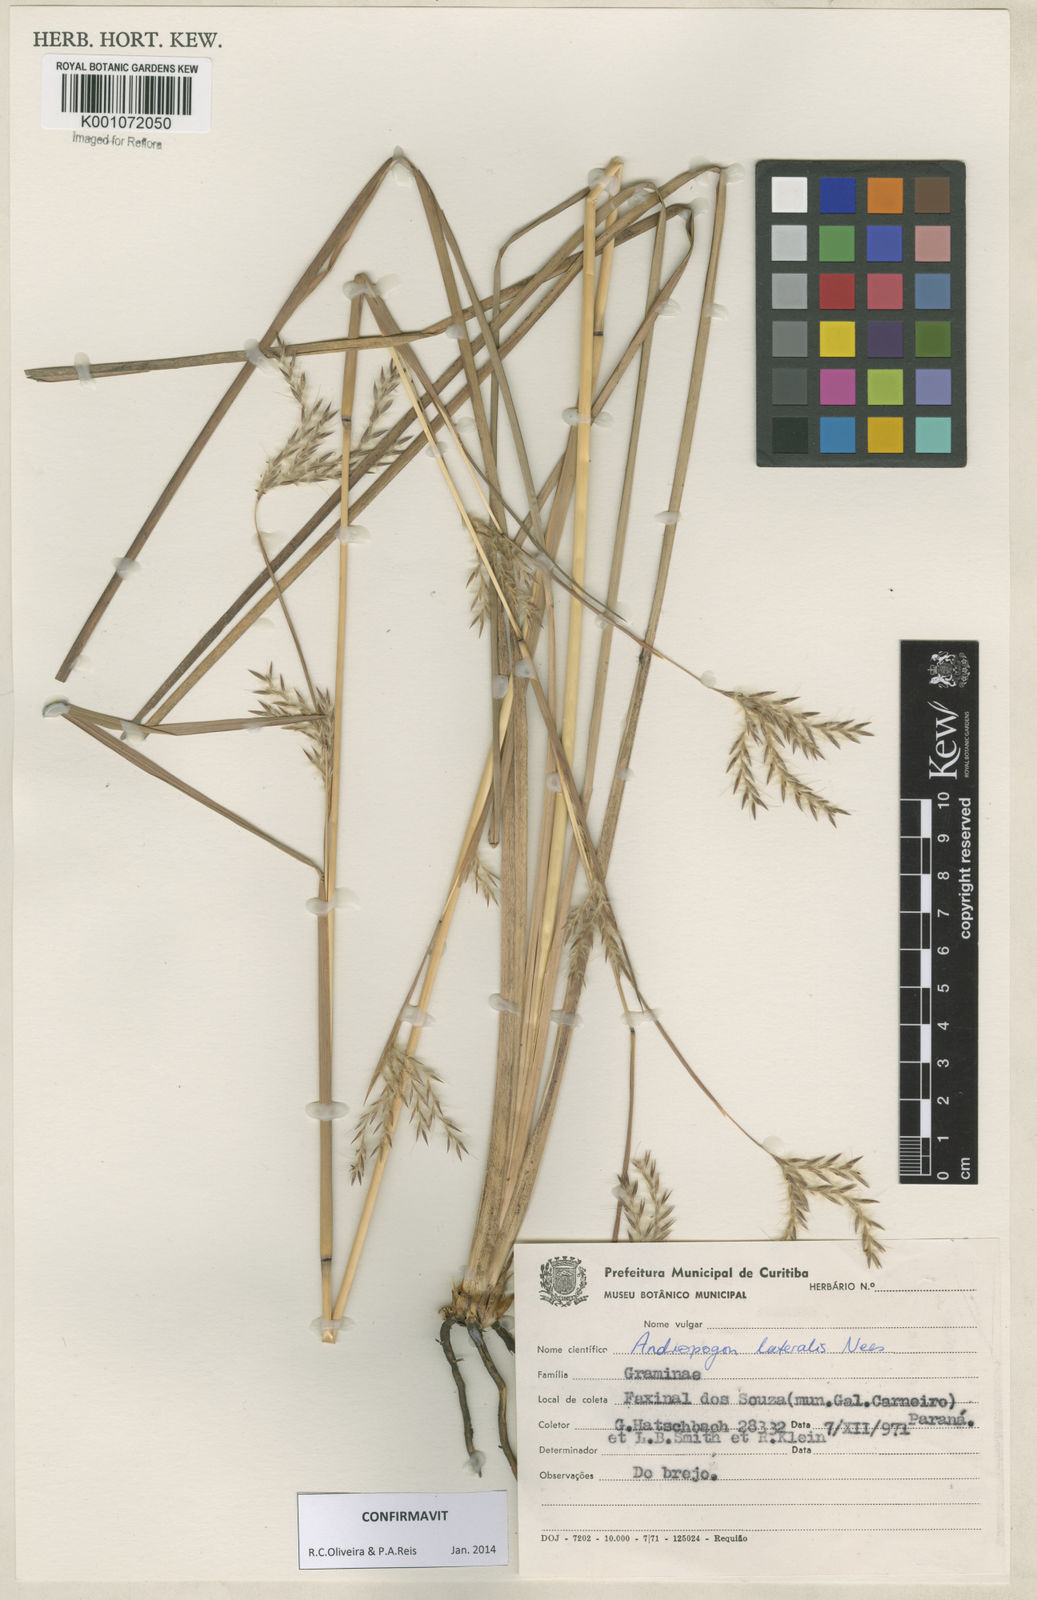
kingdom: Plantae
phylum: Tracheophyta
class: Liliopsida
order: Poales
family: Poaceae
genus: Andropogon
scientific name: Andropogon lateralis
